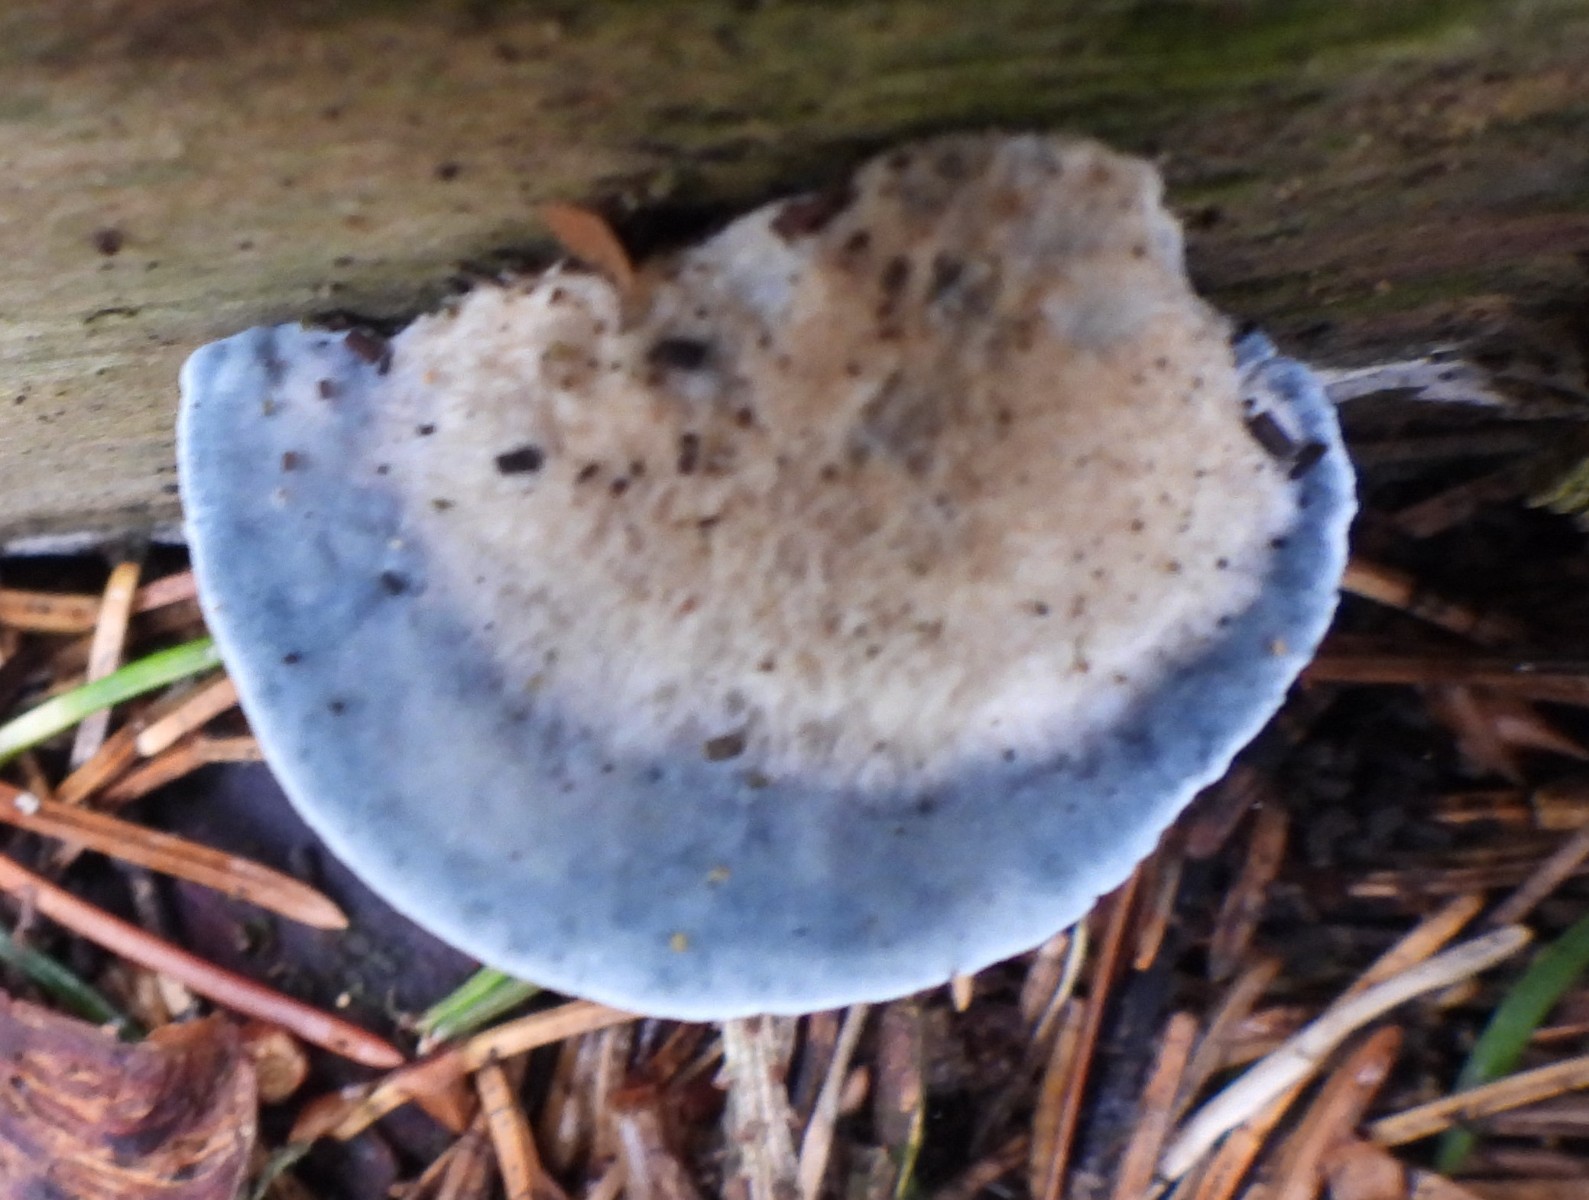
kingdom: Fungi
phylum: Basidiomycota
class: Agaricomycetes
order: Polyporales
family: Polyporaceae
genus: Cyanosporus
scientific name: Cyanosporus caesius
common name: blålig kødporesvamp
